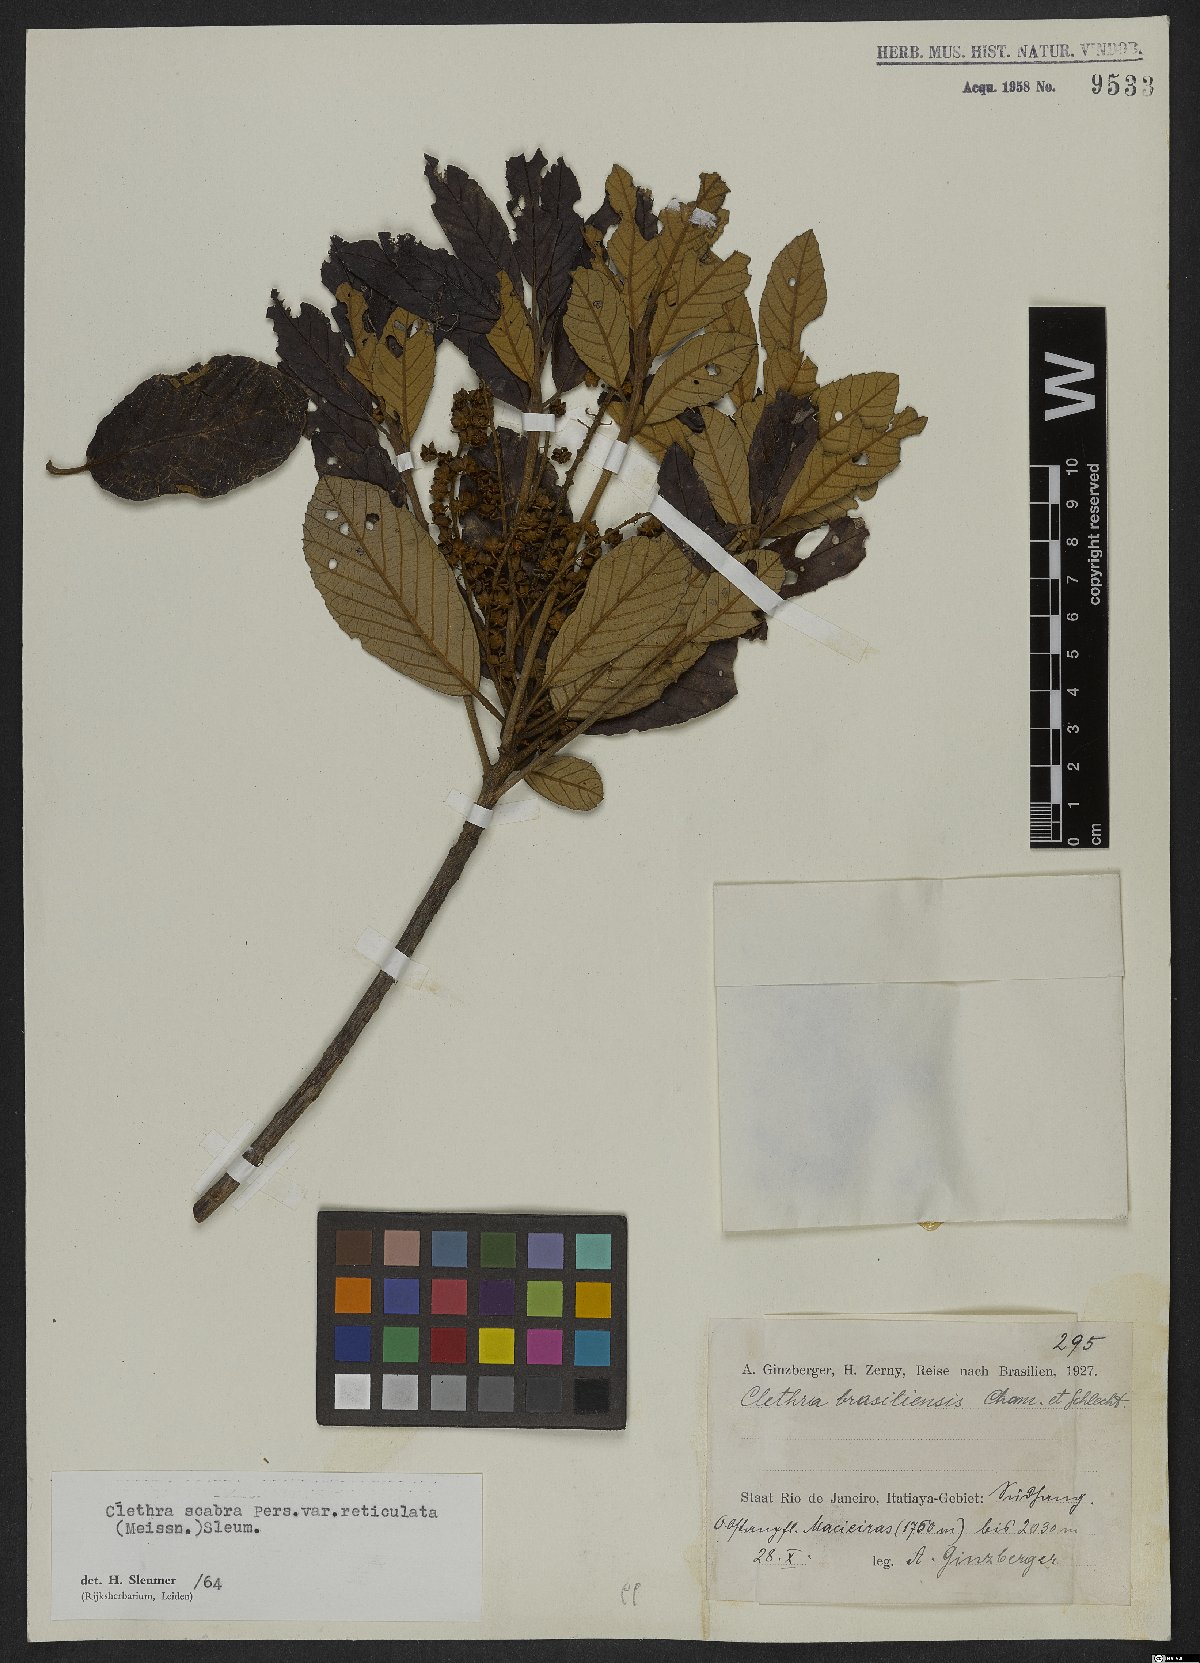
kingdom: Plantae
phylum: Tracheophyta
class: Magnoliopsida
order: Ericales
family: Clethraceae
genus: Clethra
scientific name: Clethra scabra
